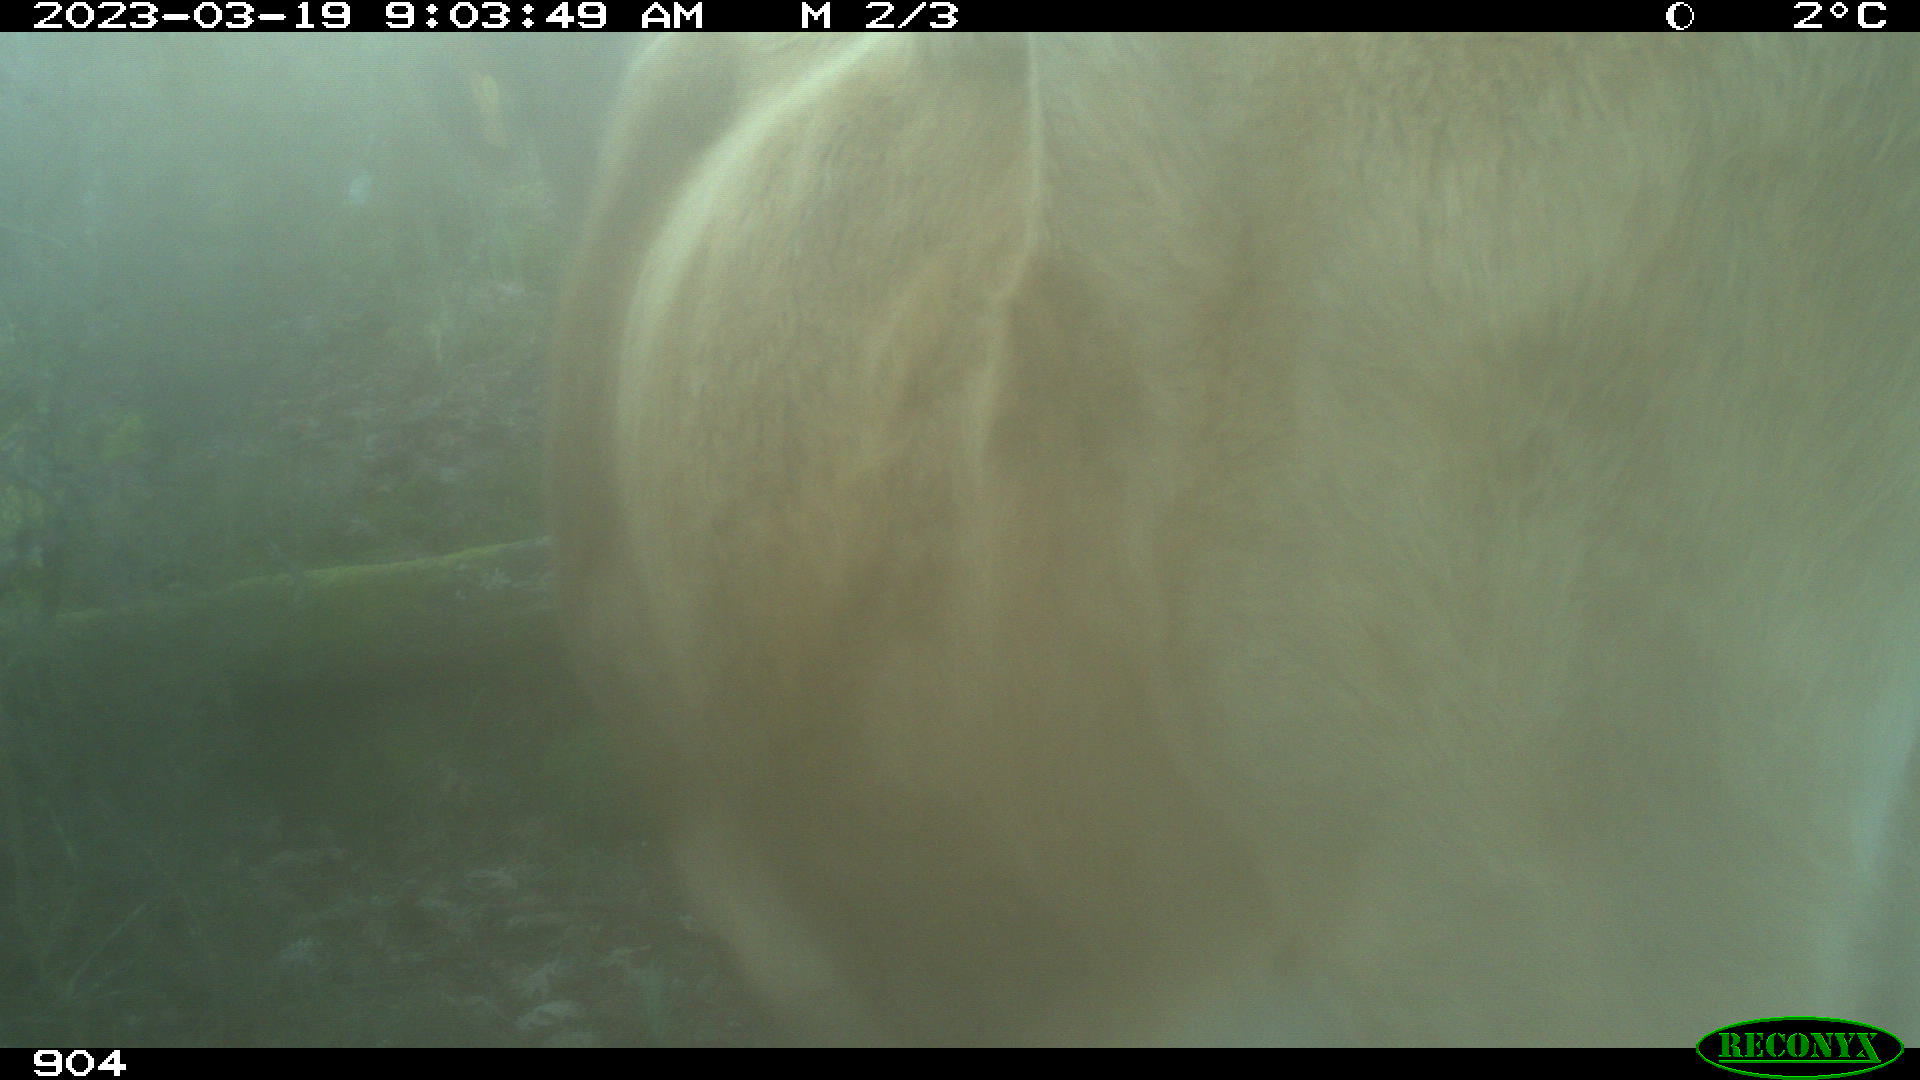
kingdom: Animalia
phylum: Chordata
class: Mammalia
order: Artiodactyla
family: Bovidae
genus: Bos
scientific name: Bos taurus
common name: Domesticated cattle
